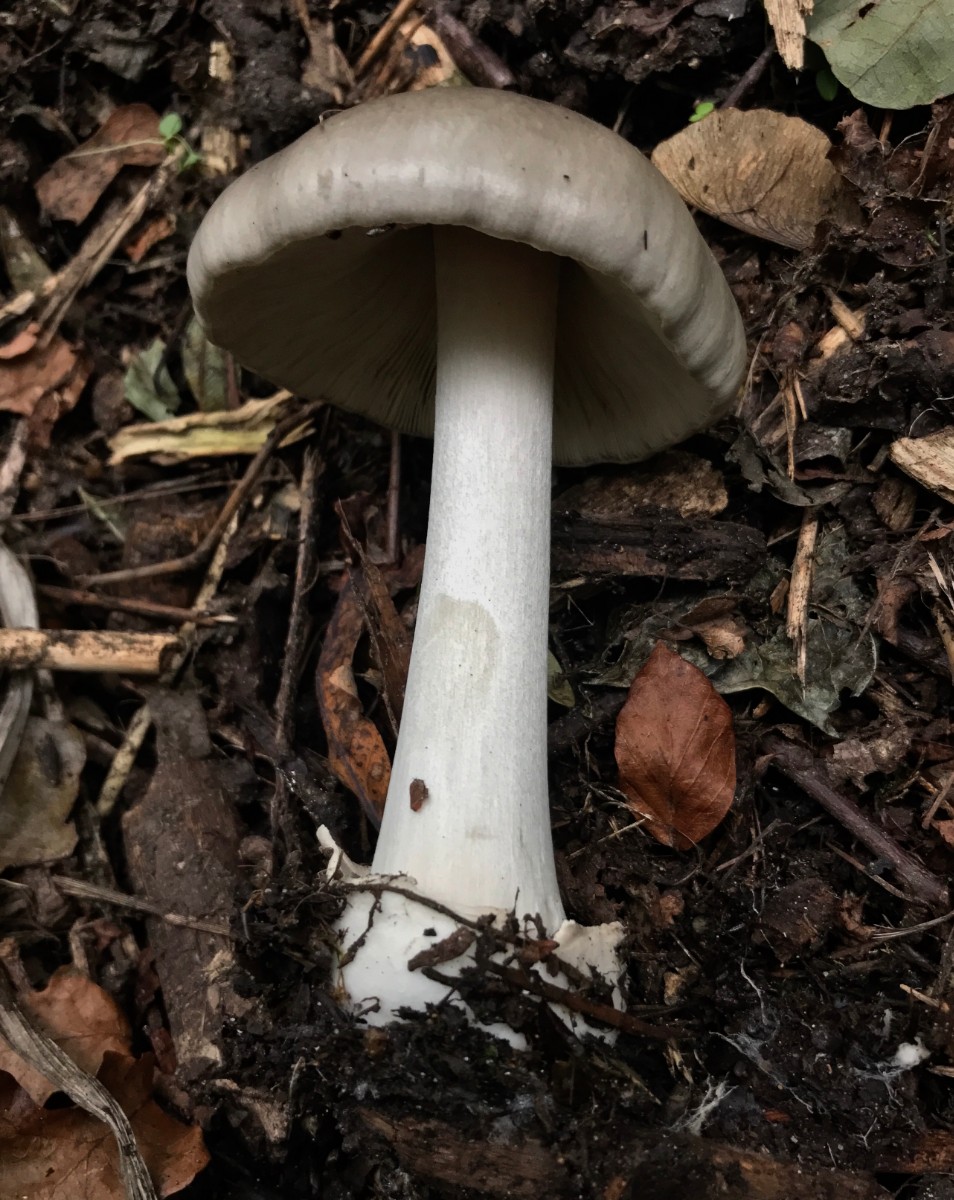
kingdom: Fungi
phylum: Basidiomycota
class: Agaricomycetes
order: Agaricales
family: Pluteaceae
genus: Volvopluteus
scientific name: Volvopluteus gloiocephalus
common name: høj posesvamp
